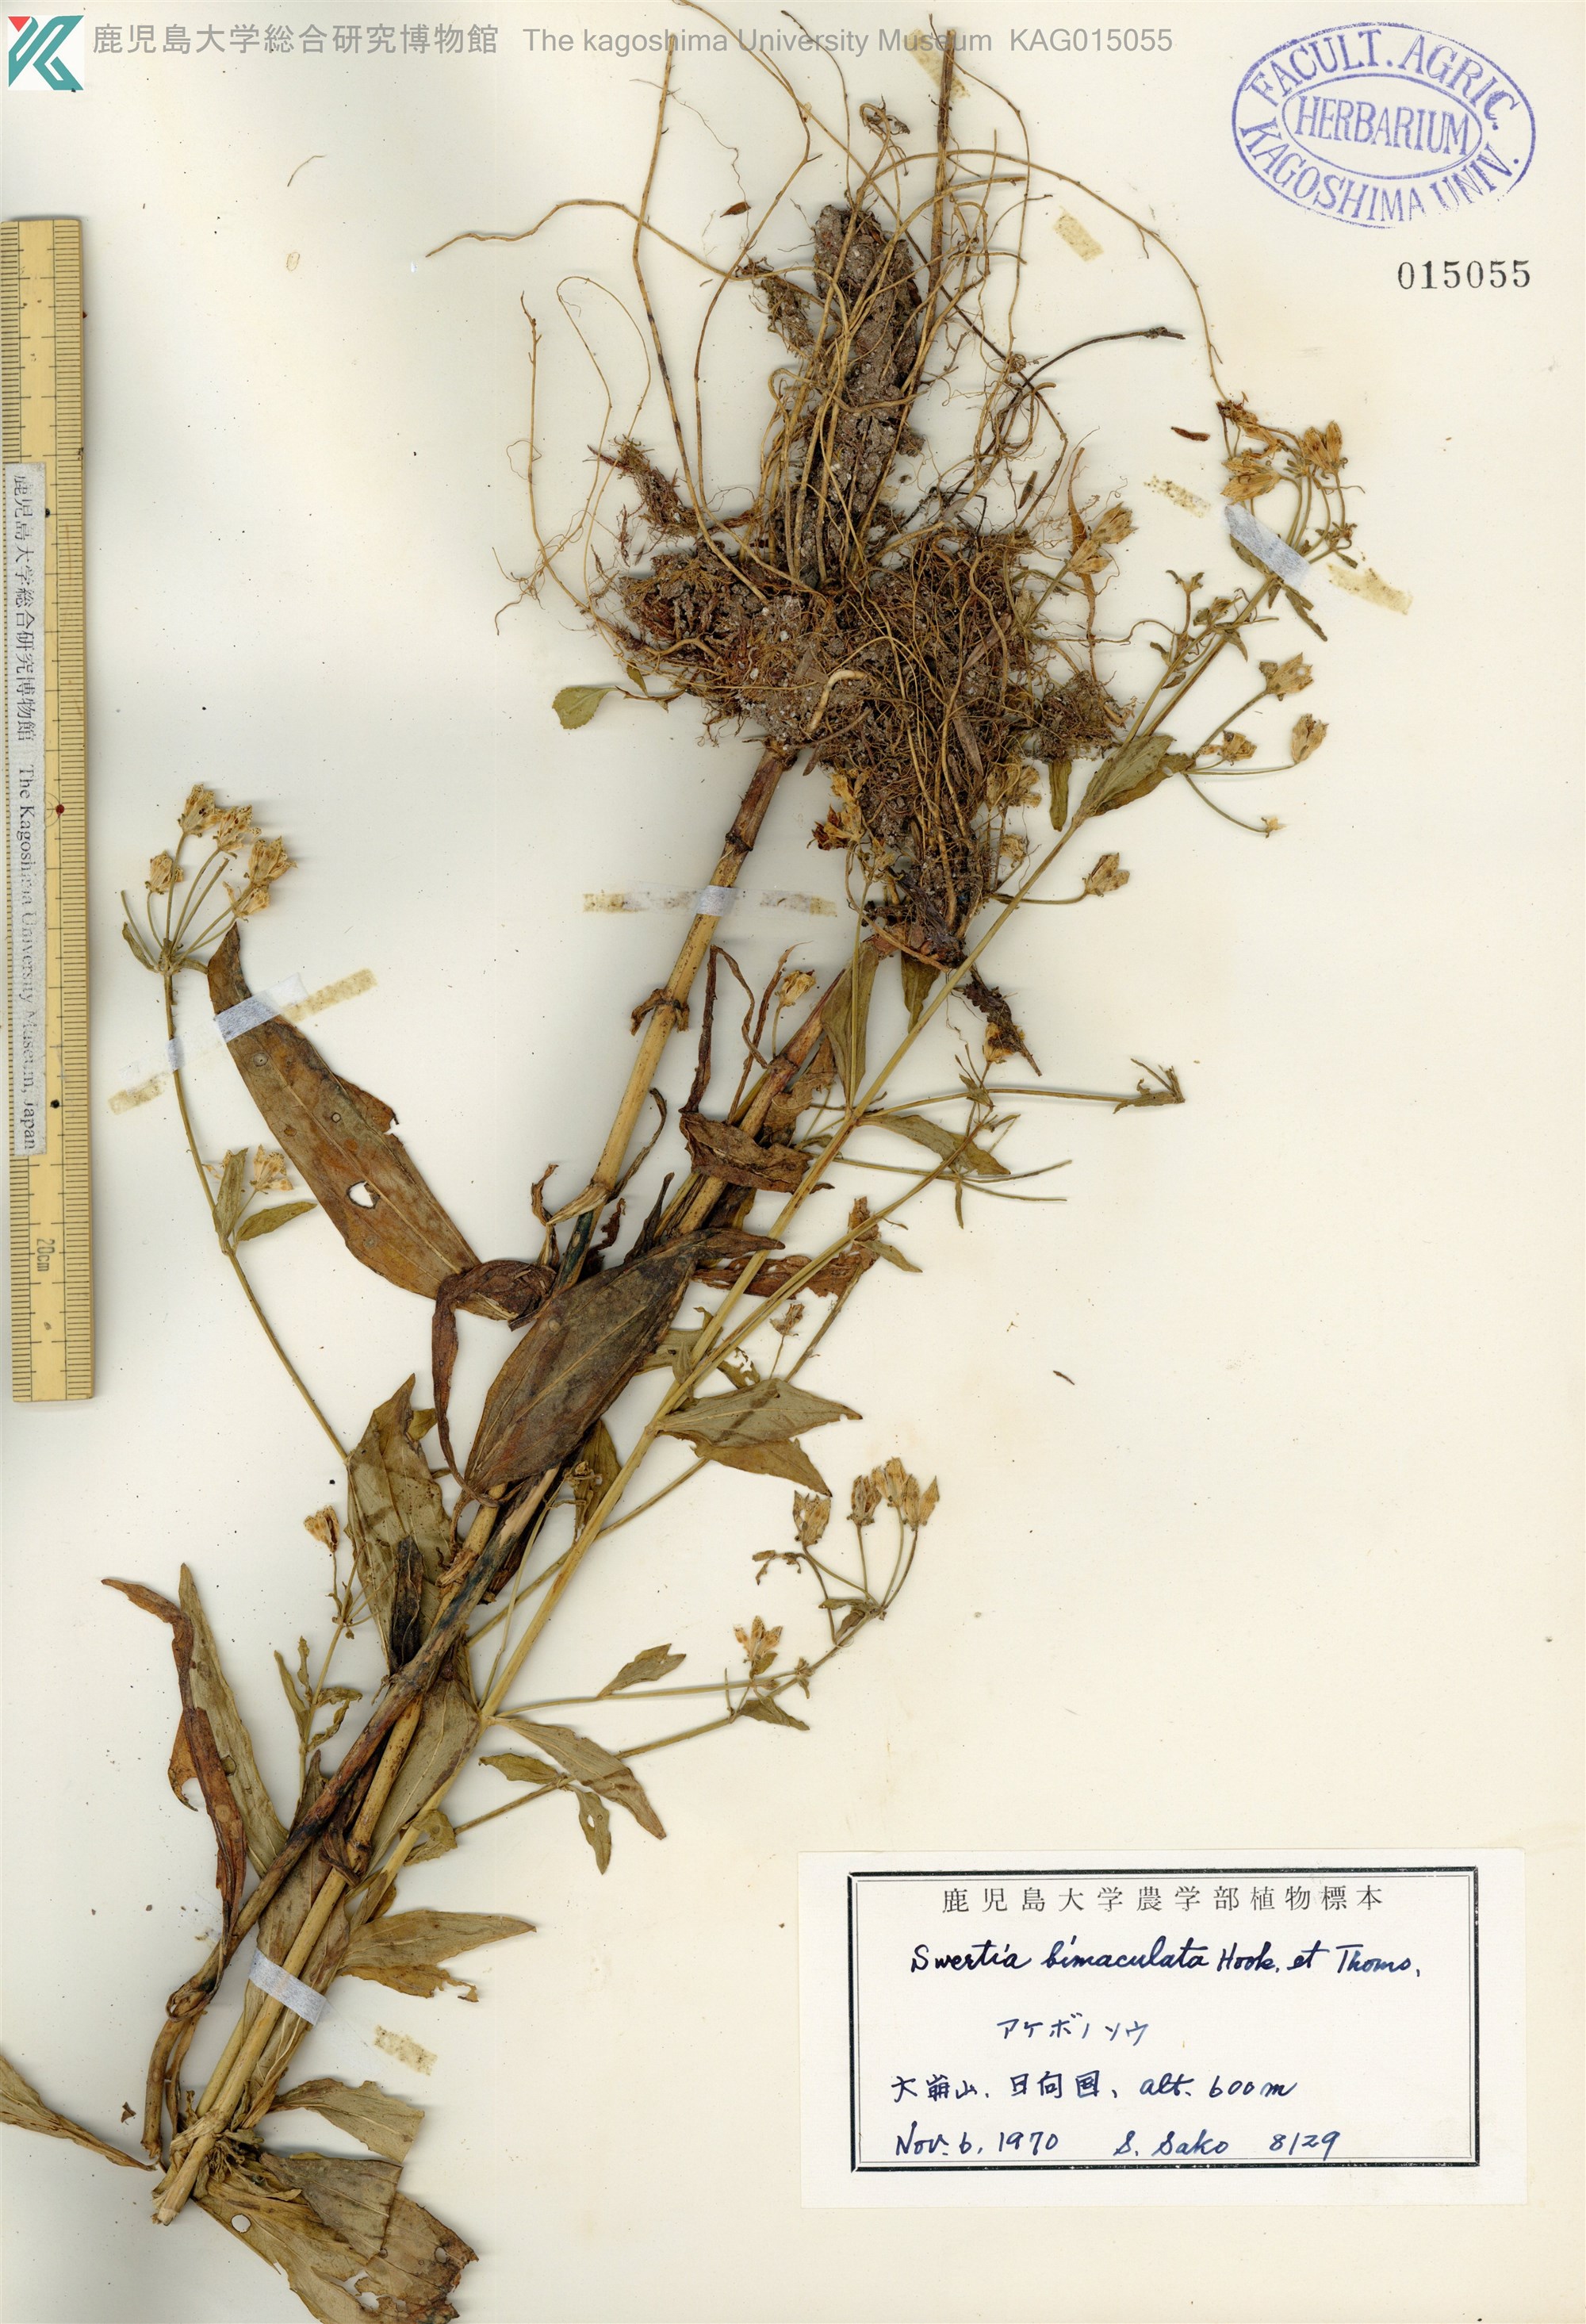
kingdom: Plantae
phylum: Tracheophyta
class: Magnoliopsida
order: Gentianales
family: Gentianaceae
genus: Swertia
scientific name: Swertia bimaculata
